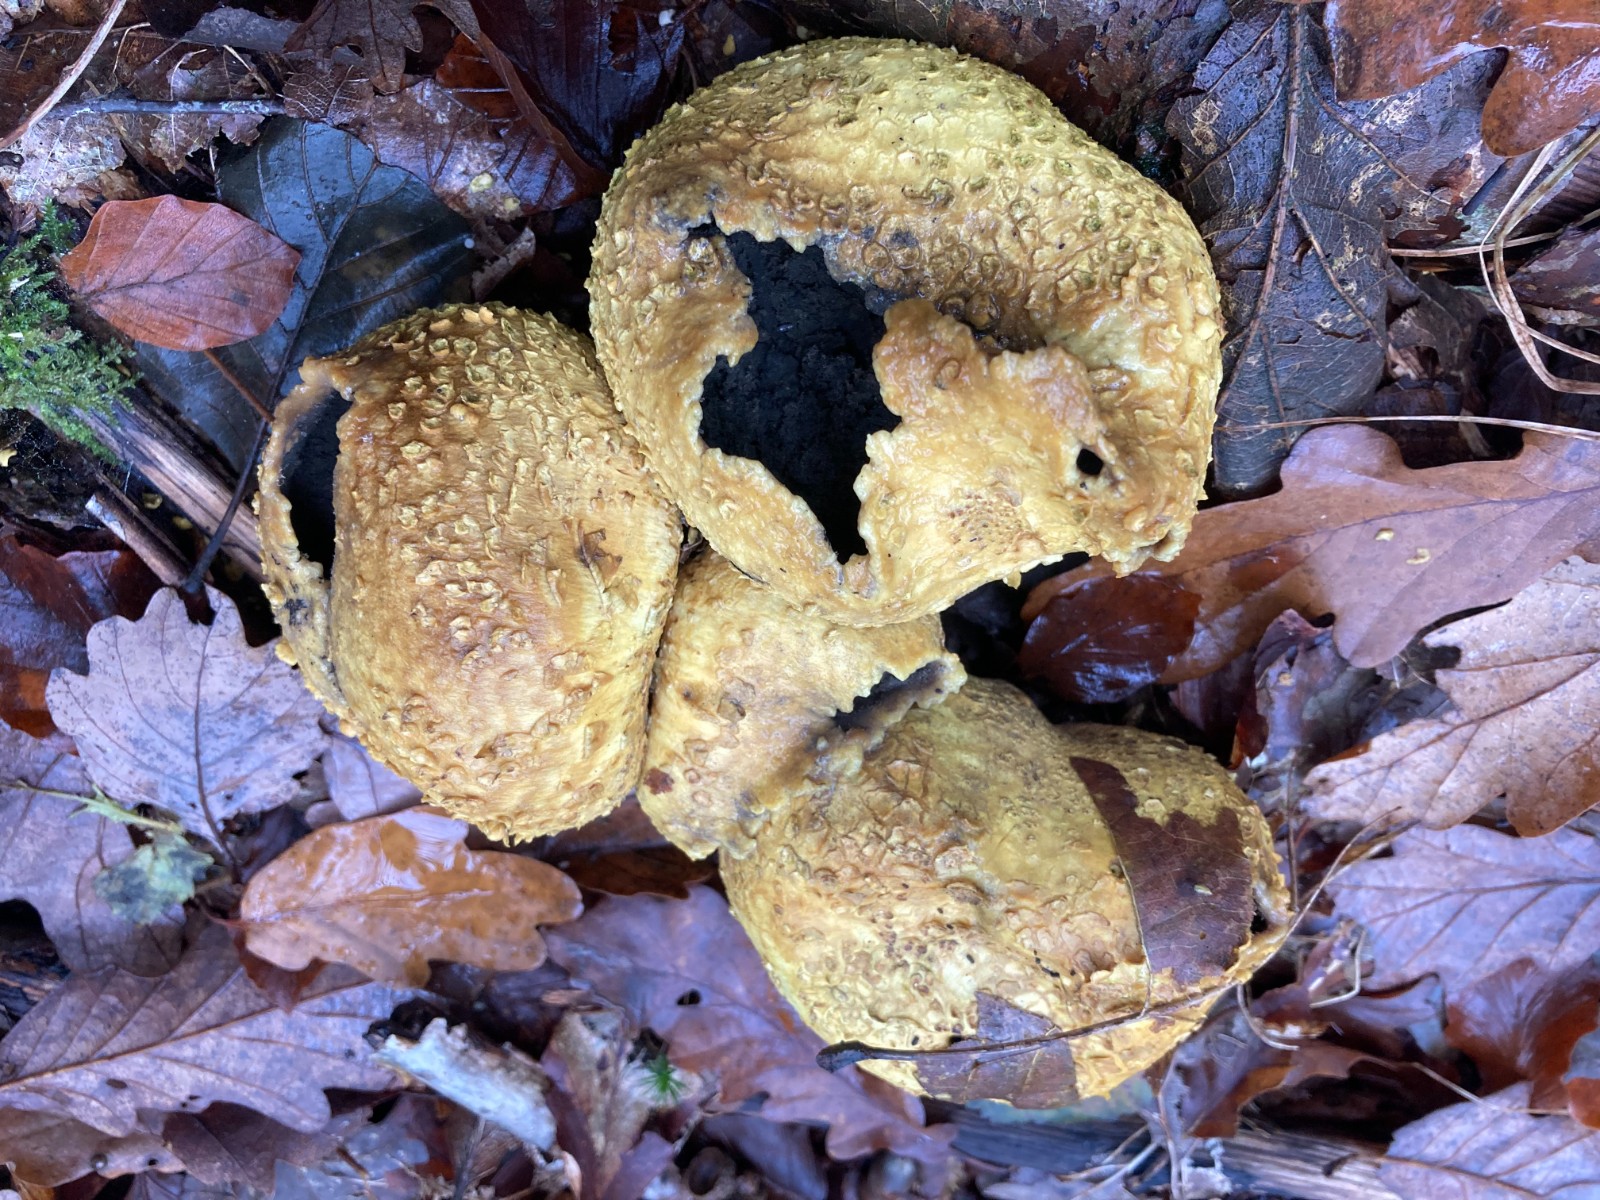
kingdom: Fungi
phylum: Basidiomycota
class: Agaricomycetes
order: Boletales
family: Sclerodermataceae
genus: Scleroderma
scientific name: Scleroderma citrinum
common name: almindelig bruskbold
